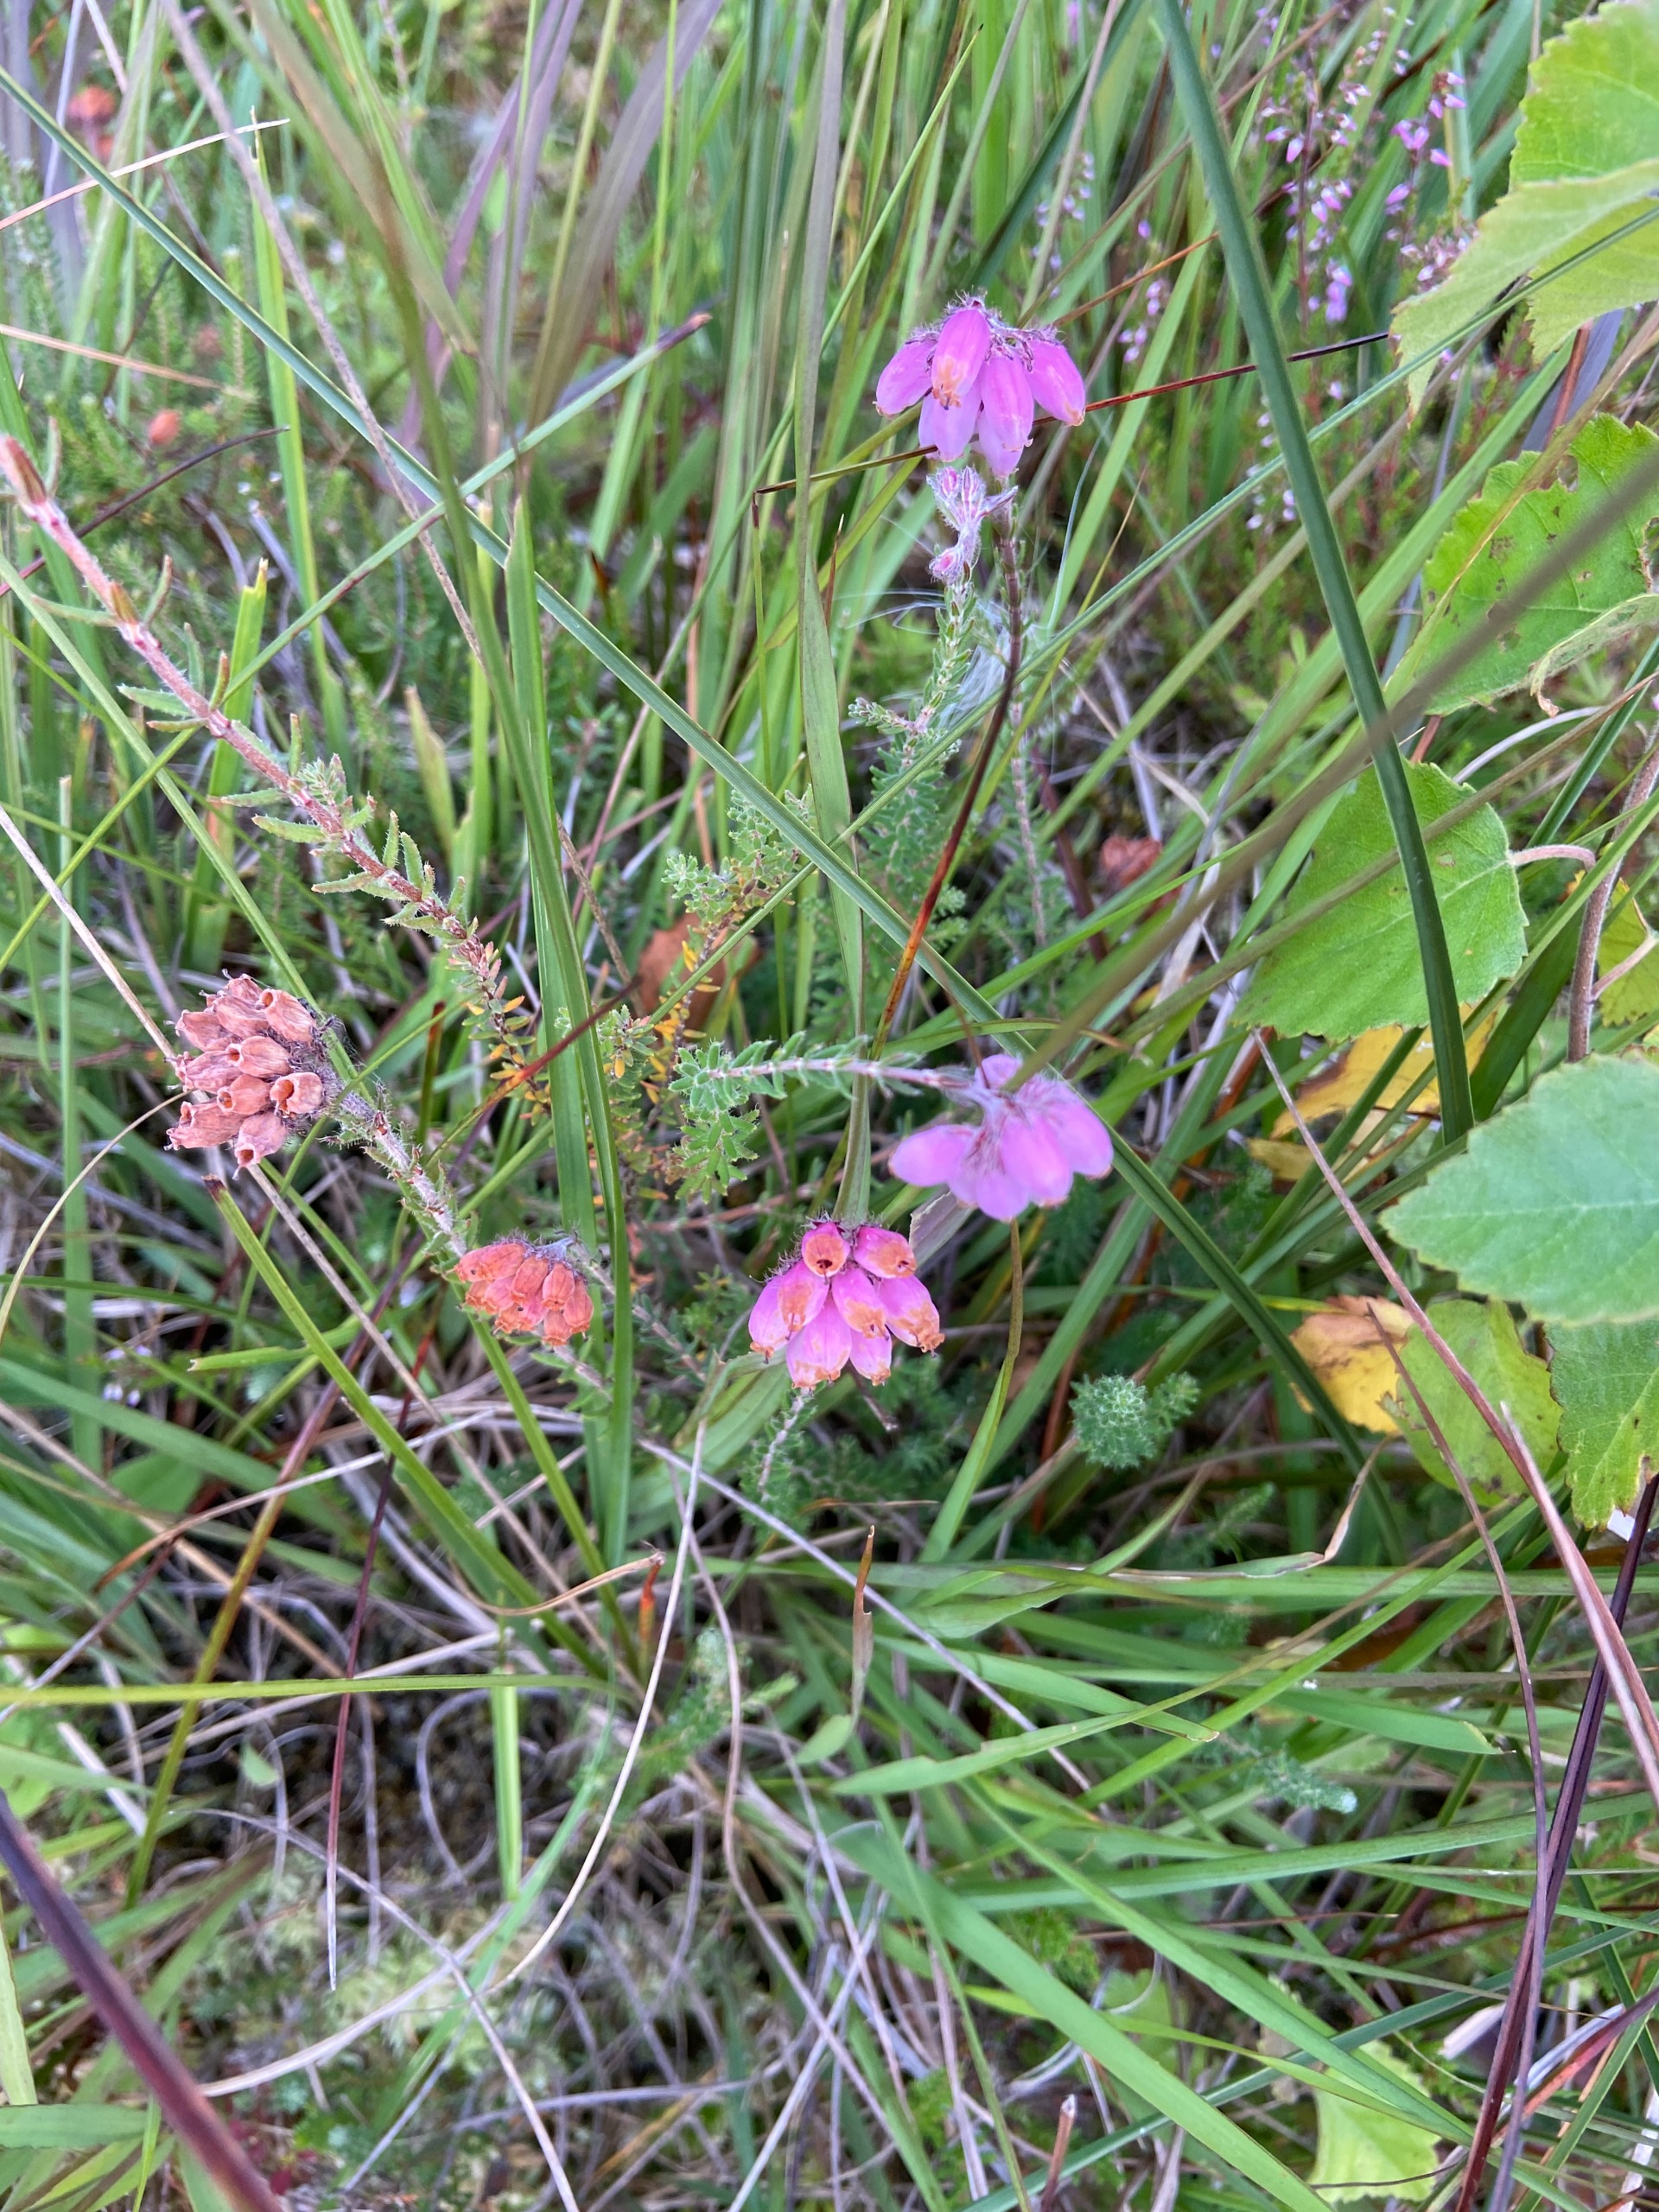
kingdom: Plantae
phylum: Tracheophyta
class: Magnoliopsida
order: Ericales
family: Ericaceae
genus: Erica
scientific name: Erica tetralix
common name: Klokkelyng
